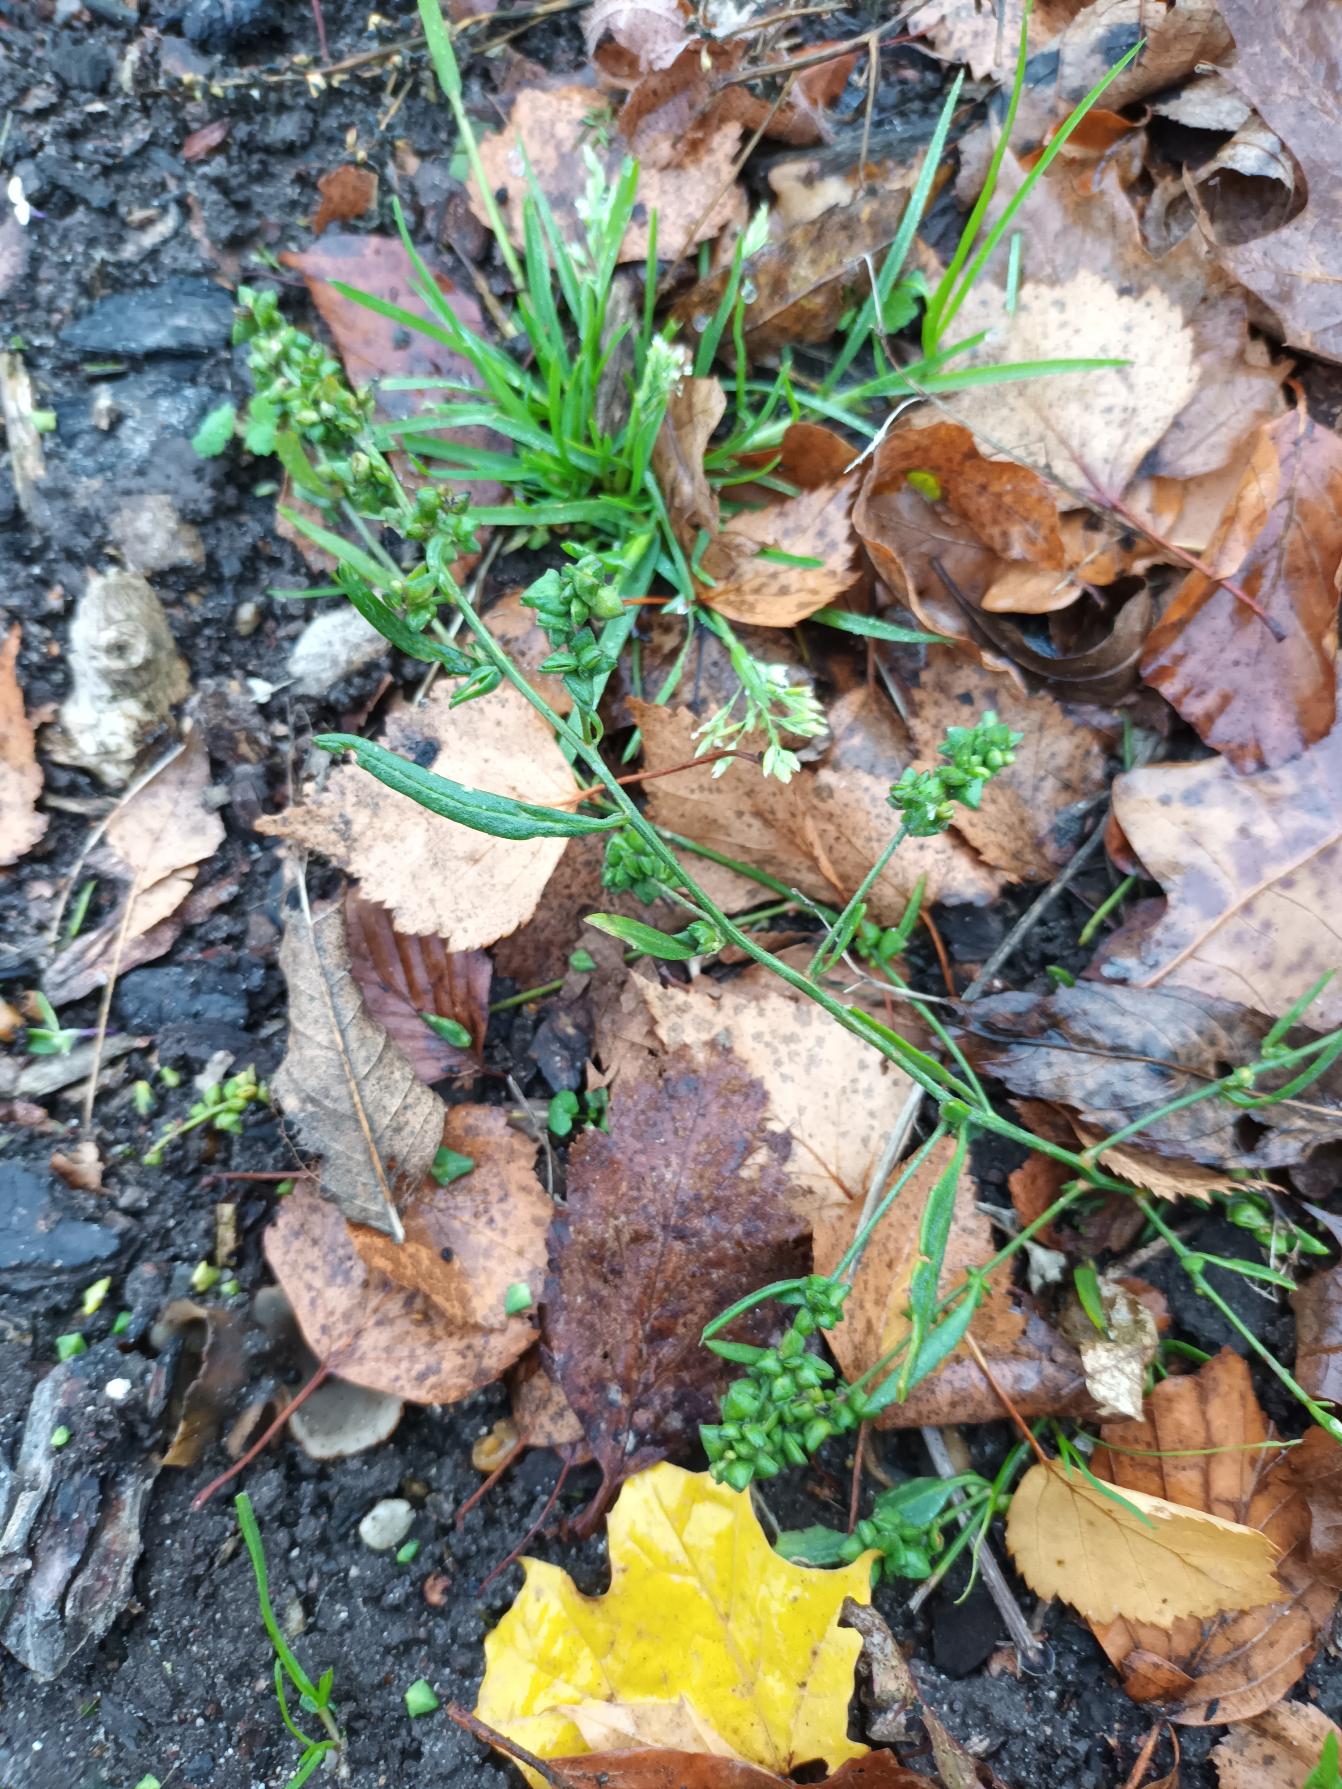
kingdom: Plantae
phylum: Tracheophyta
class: Magnoliopsida
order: Caryophyllales
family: Amaranthaceae
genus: Atriplex
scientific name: Atriplex patula
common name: Svine-mælde
